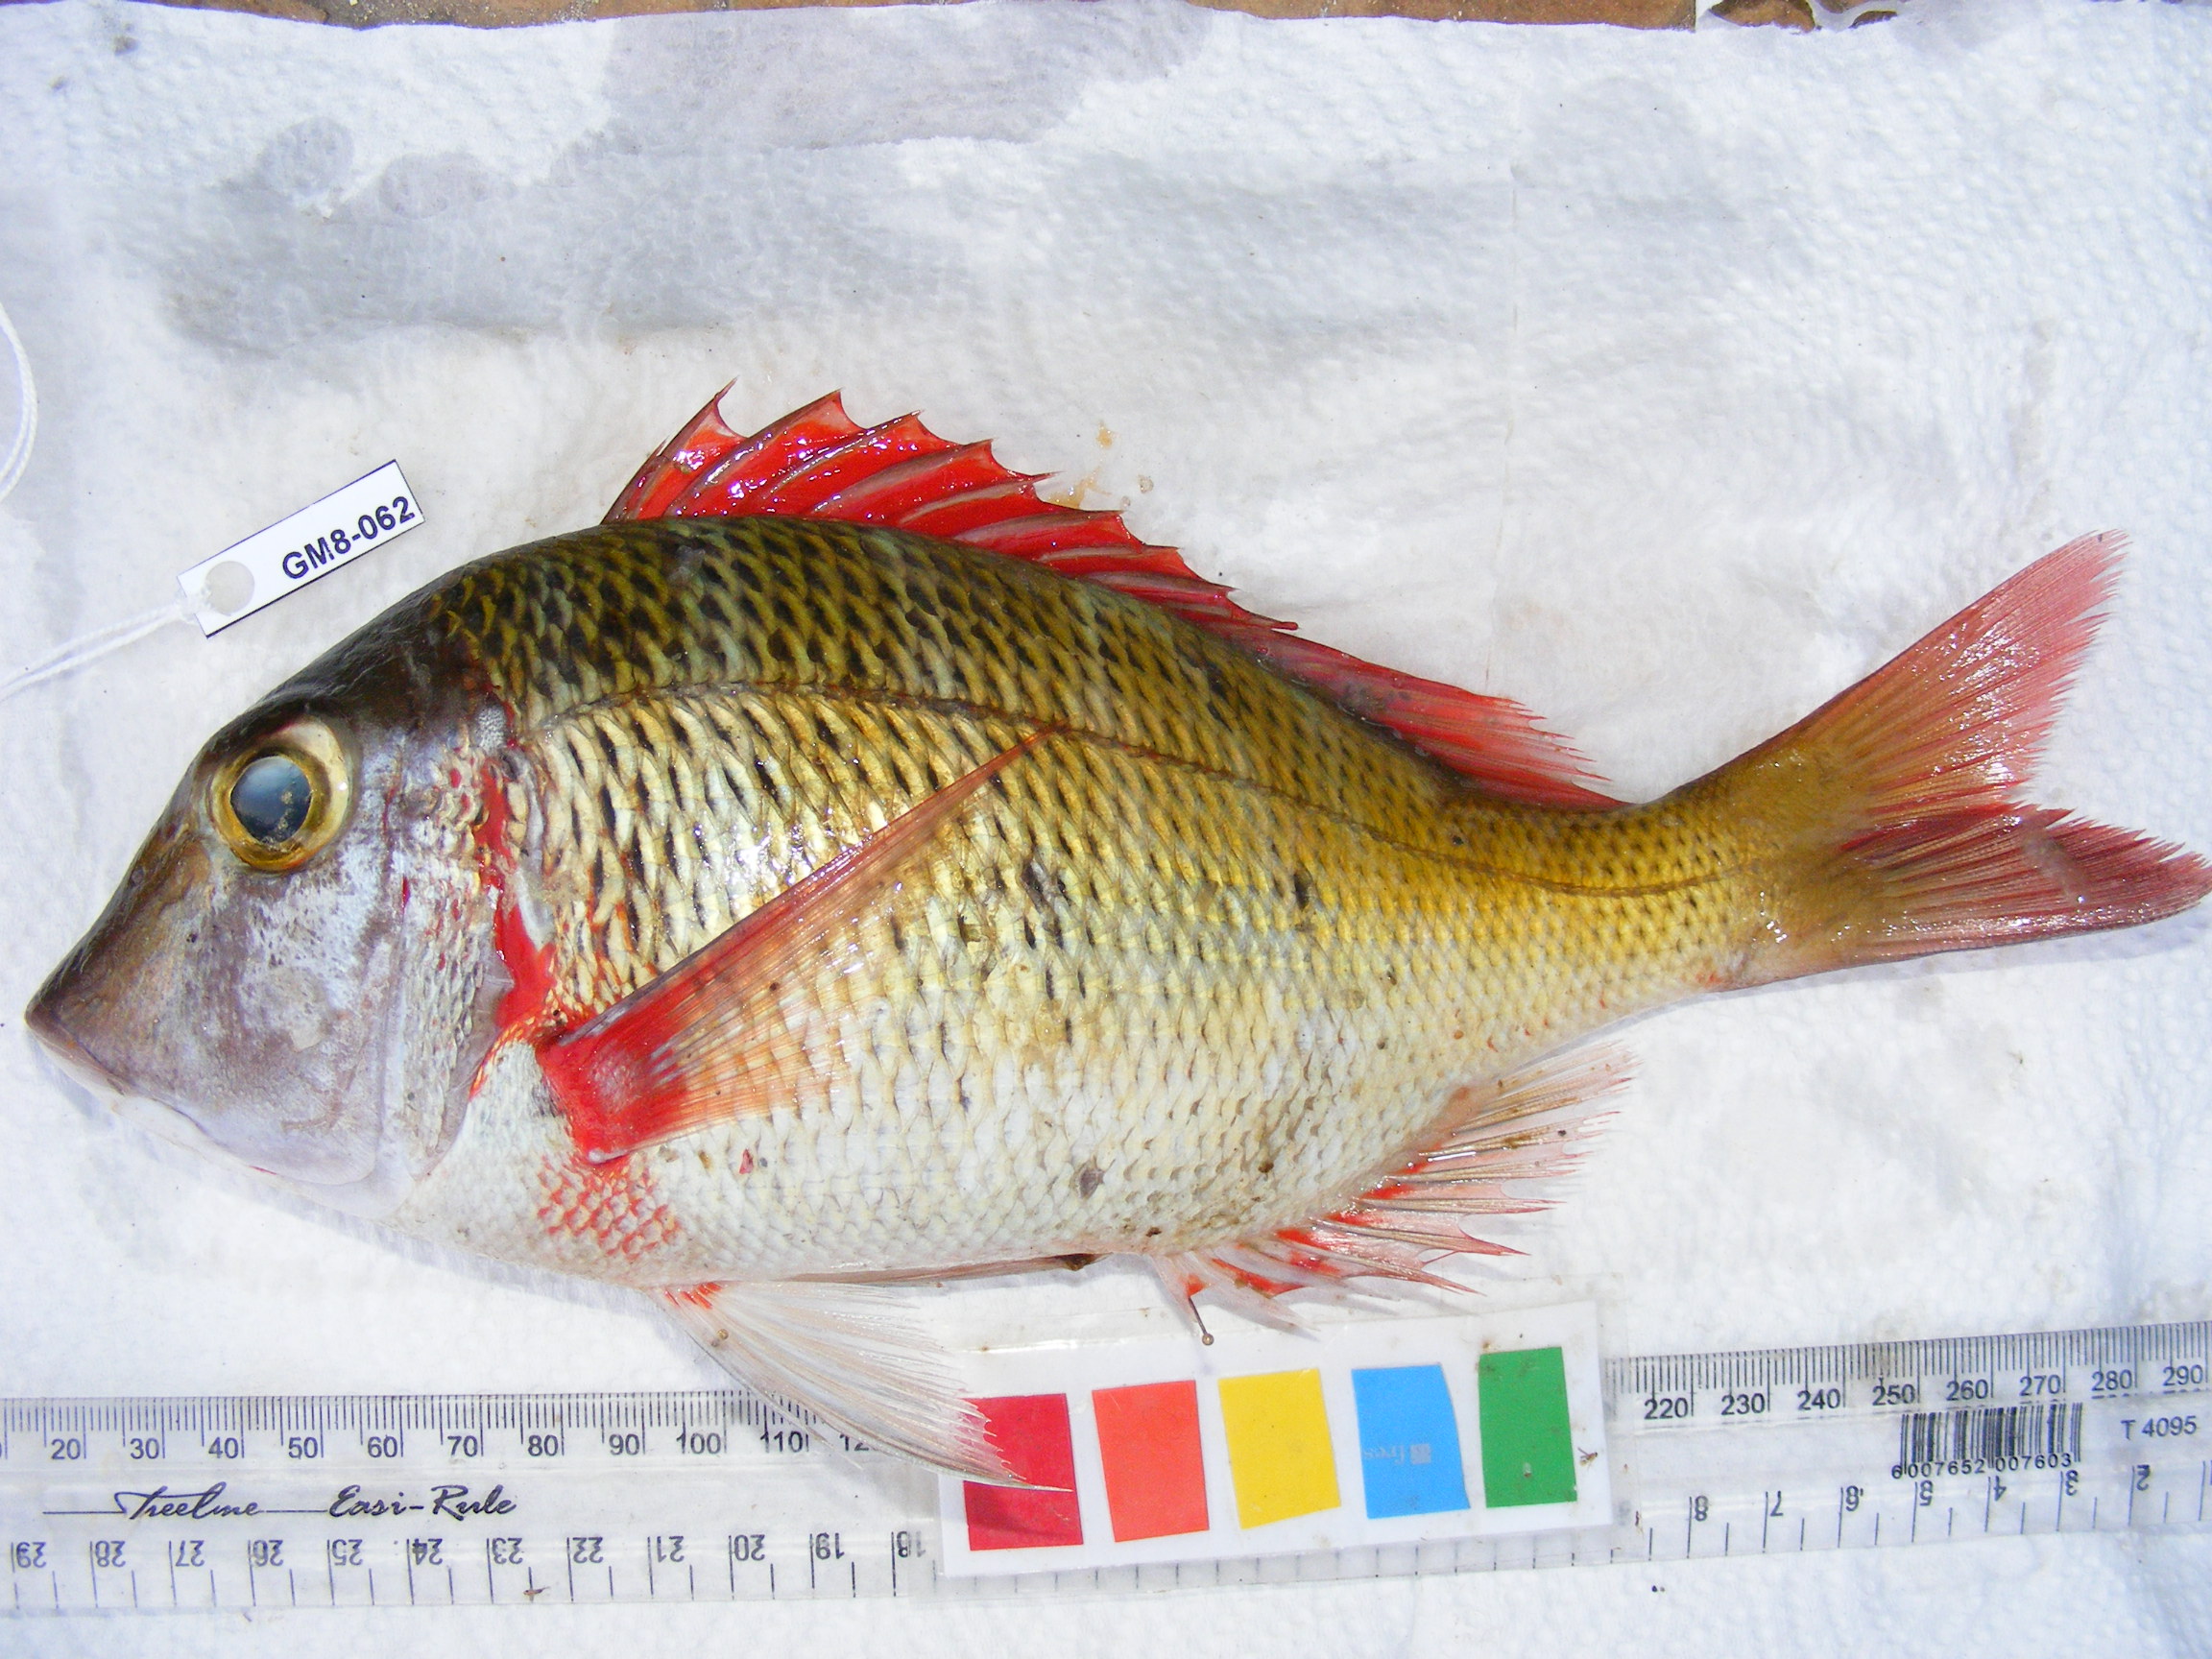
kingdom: Animalia
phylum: Chordata
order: Perciformes
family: Lethrinidae
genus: Lethrinus
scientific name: Lethrinus mahsena
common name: Sky emperor
